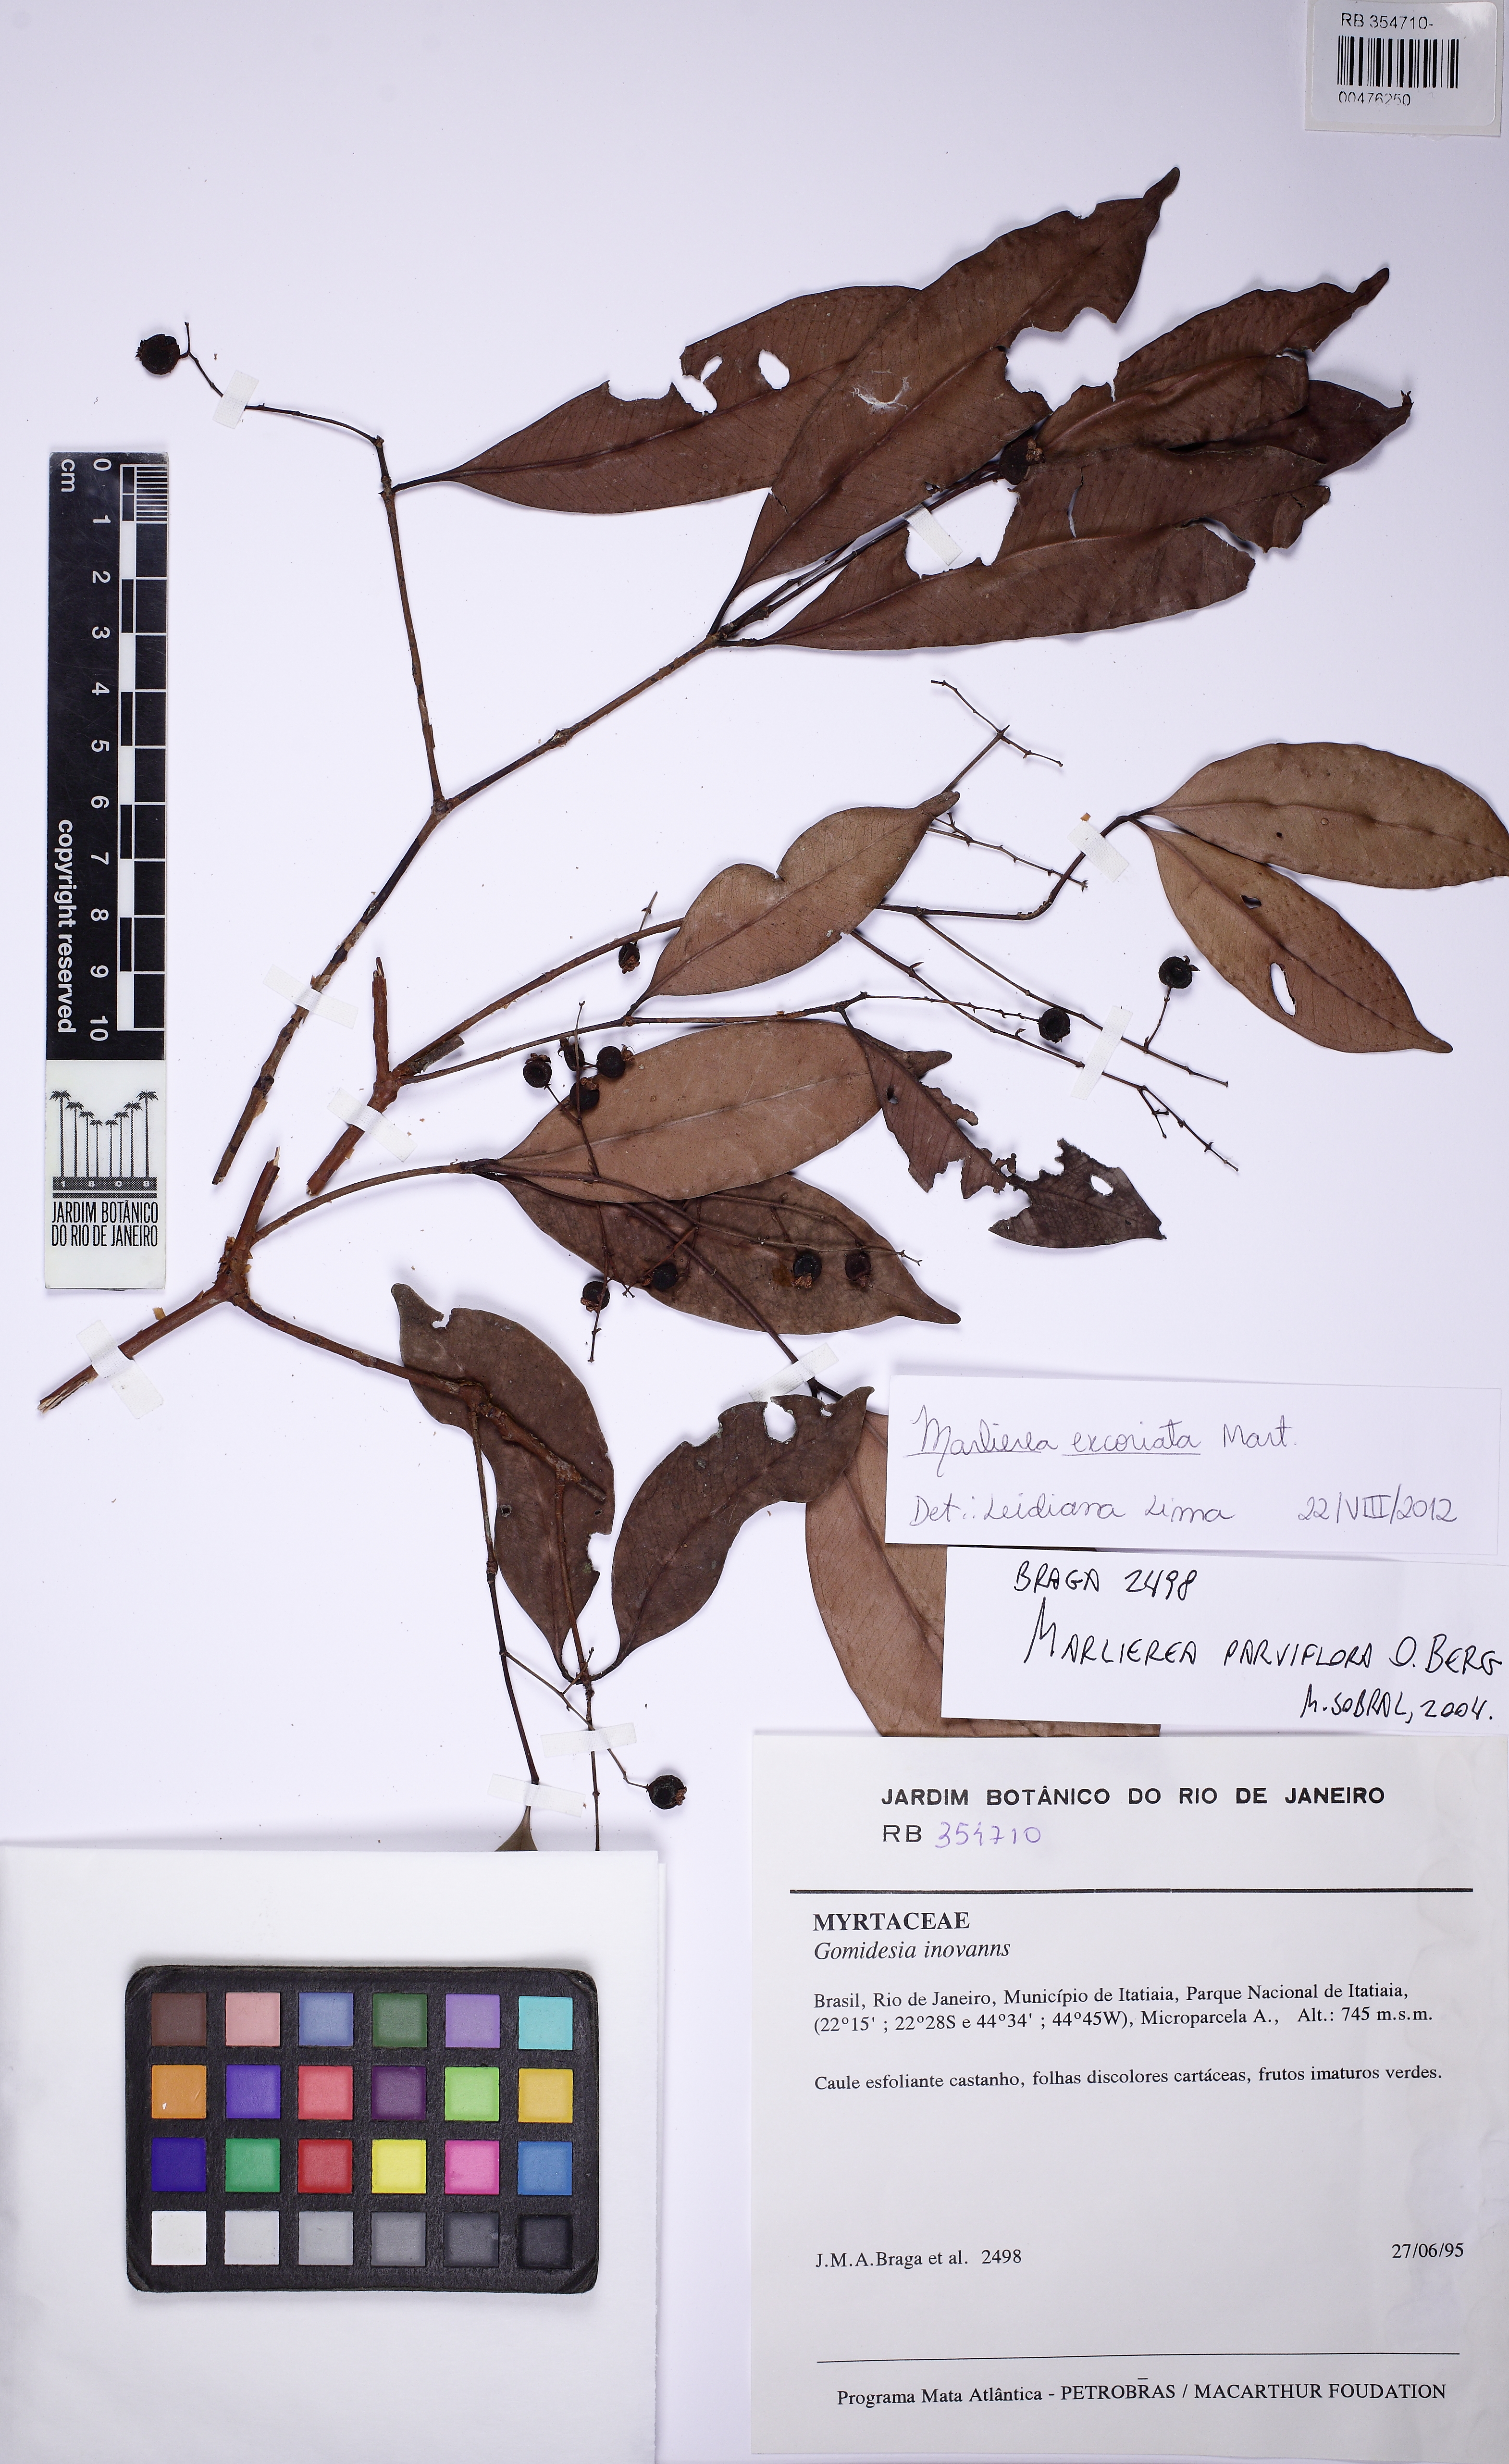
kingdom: Plantae
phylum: Tracheophyta
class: Magnoliopsida
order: Myrtales
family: Myrtaceae
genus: Myrcia
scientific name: Myrcia excoriata
